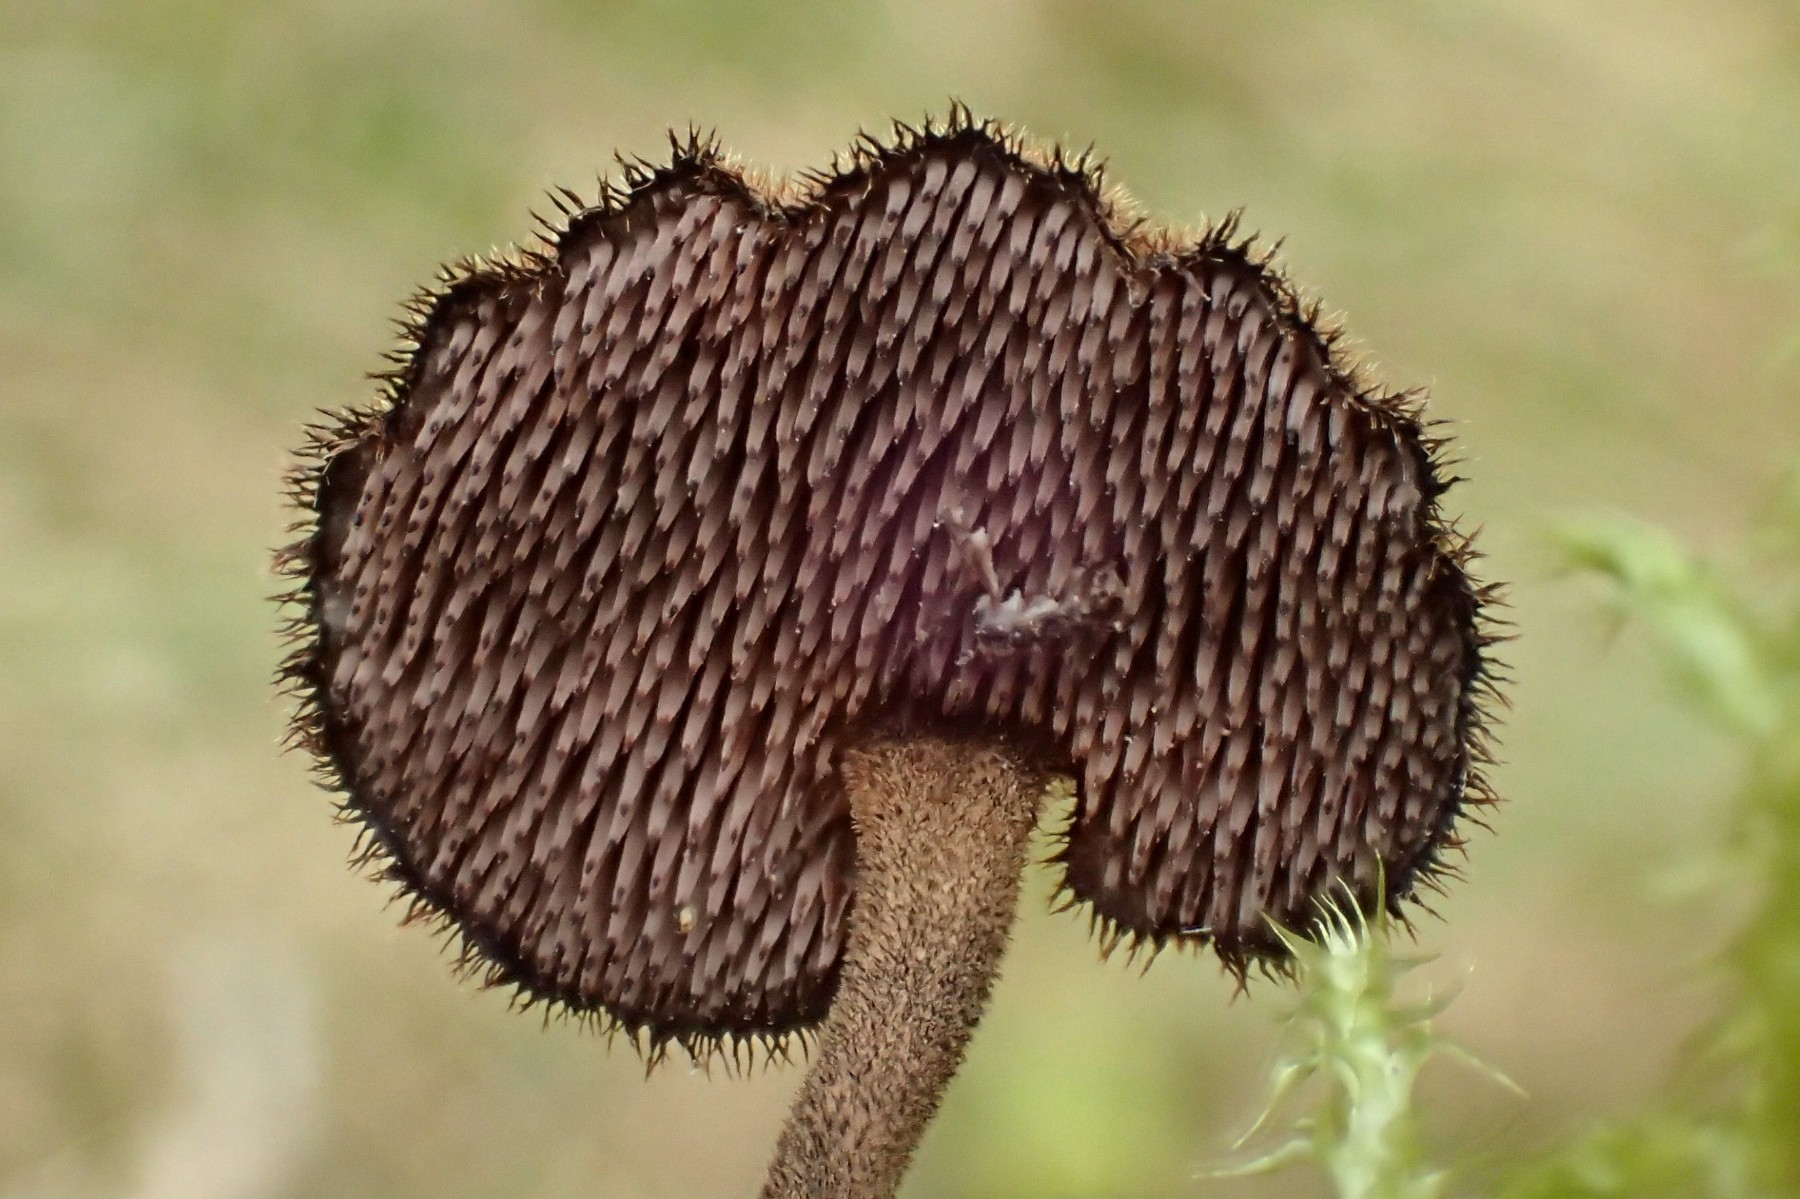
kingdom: Fungi
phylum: Basidiomycota
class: Agaricomycetes
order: Russulales
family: Auriscalpiaceae
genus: Auriscalpium
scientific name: Auriscalpium vulgare
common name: koglepigsvamp
